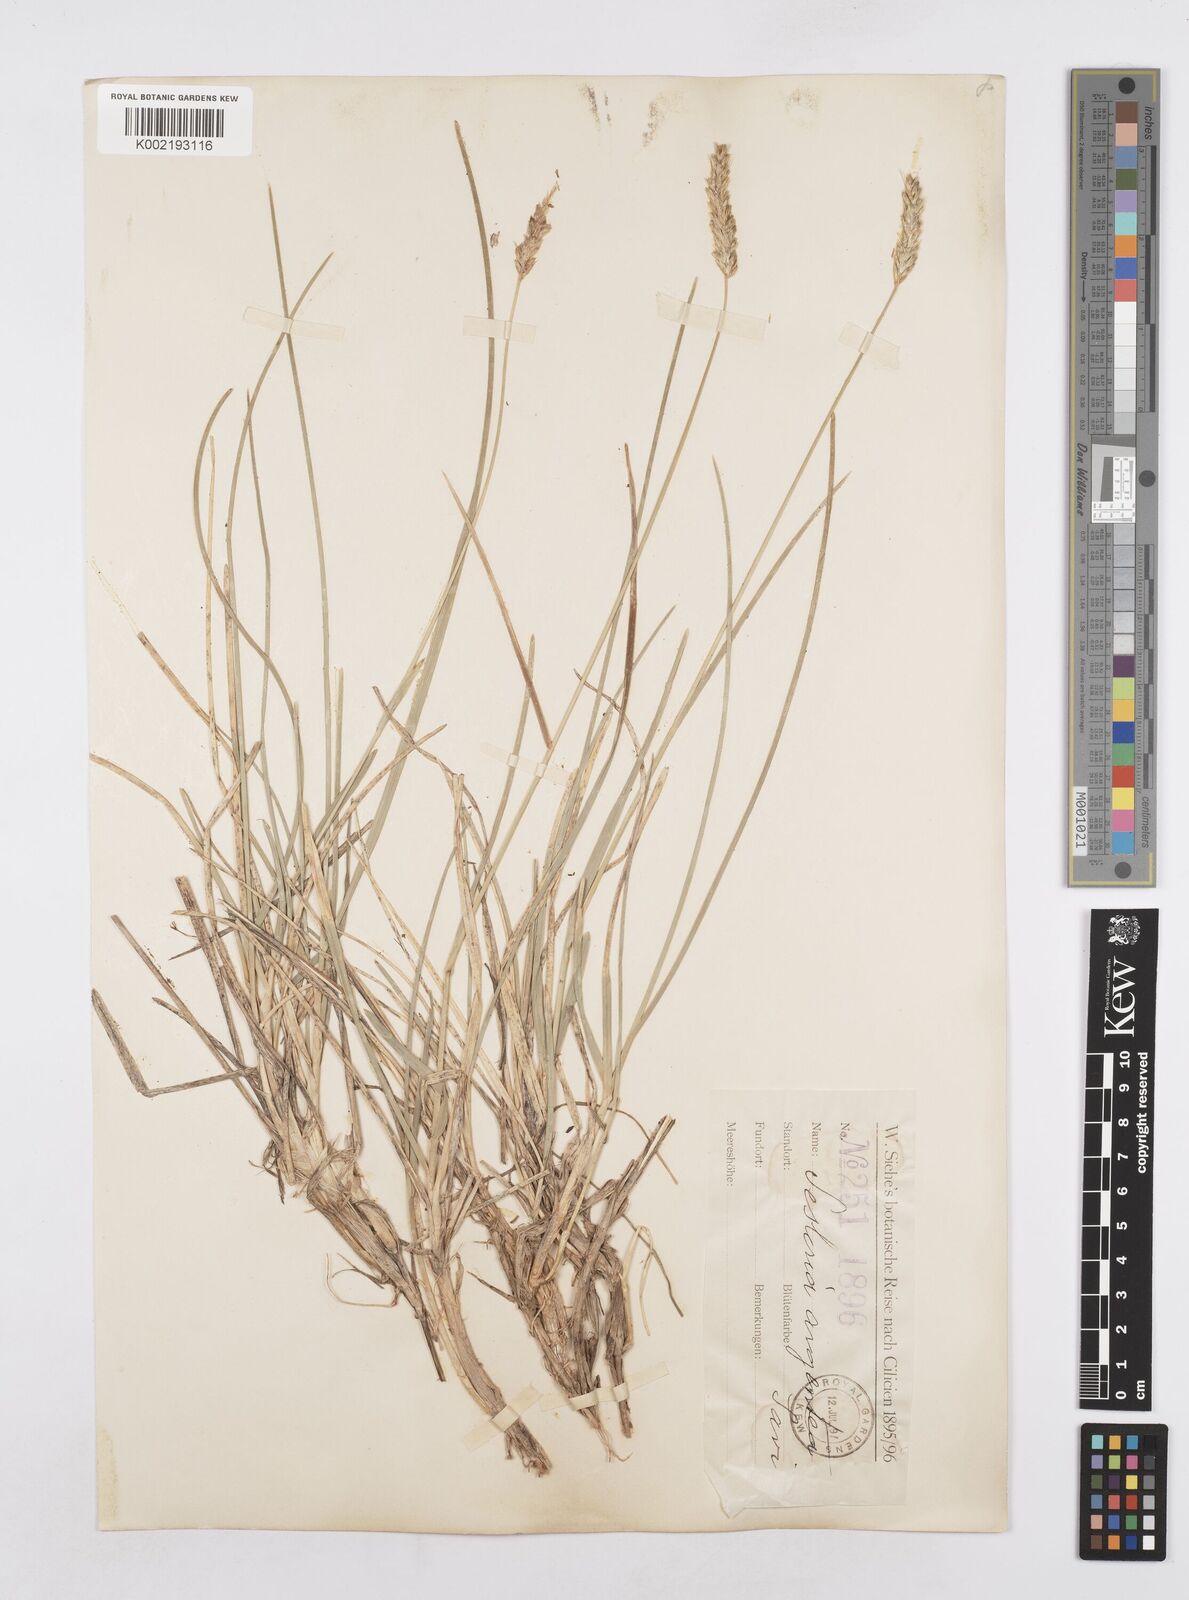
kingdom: Plantae
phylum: Tracheophyta
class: Liliopsida
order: Poales
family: Poaceae
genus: Sesleria
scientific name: Sesleria argentea
